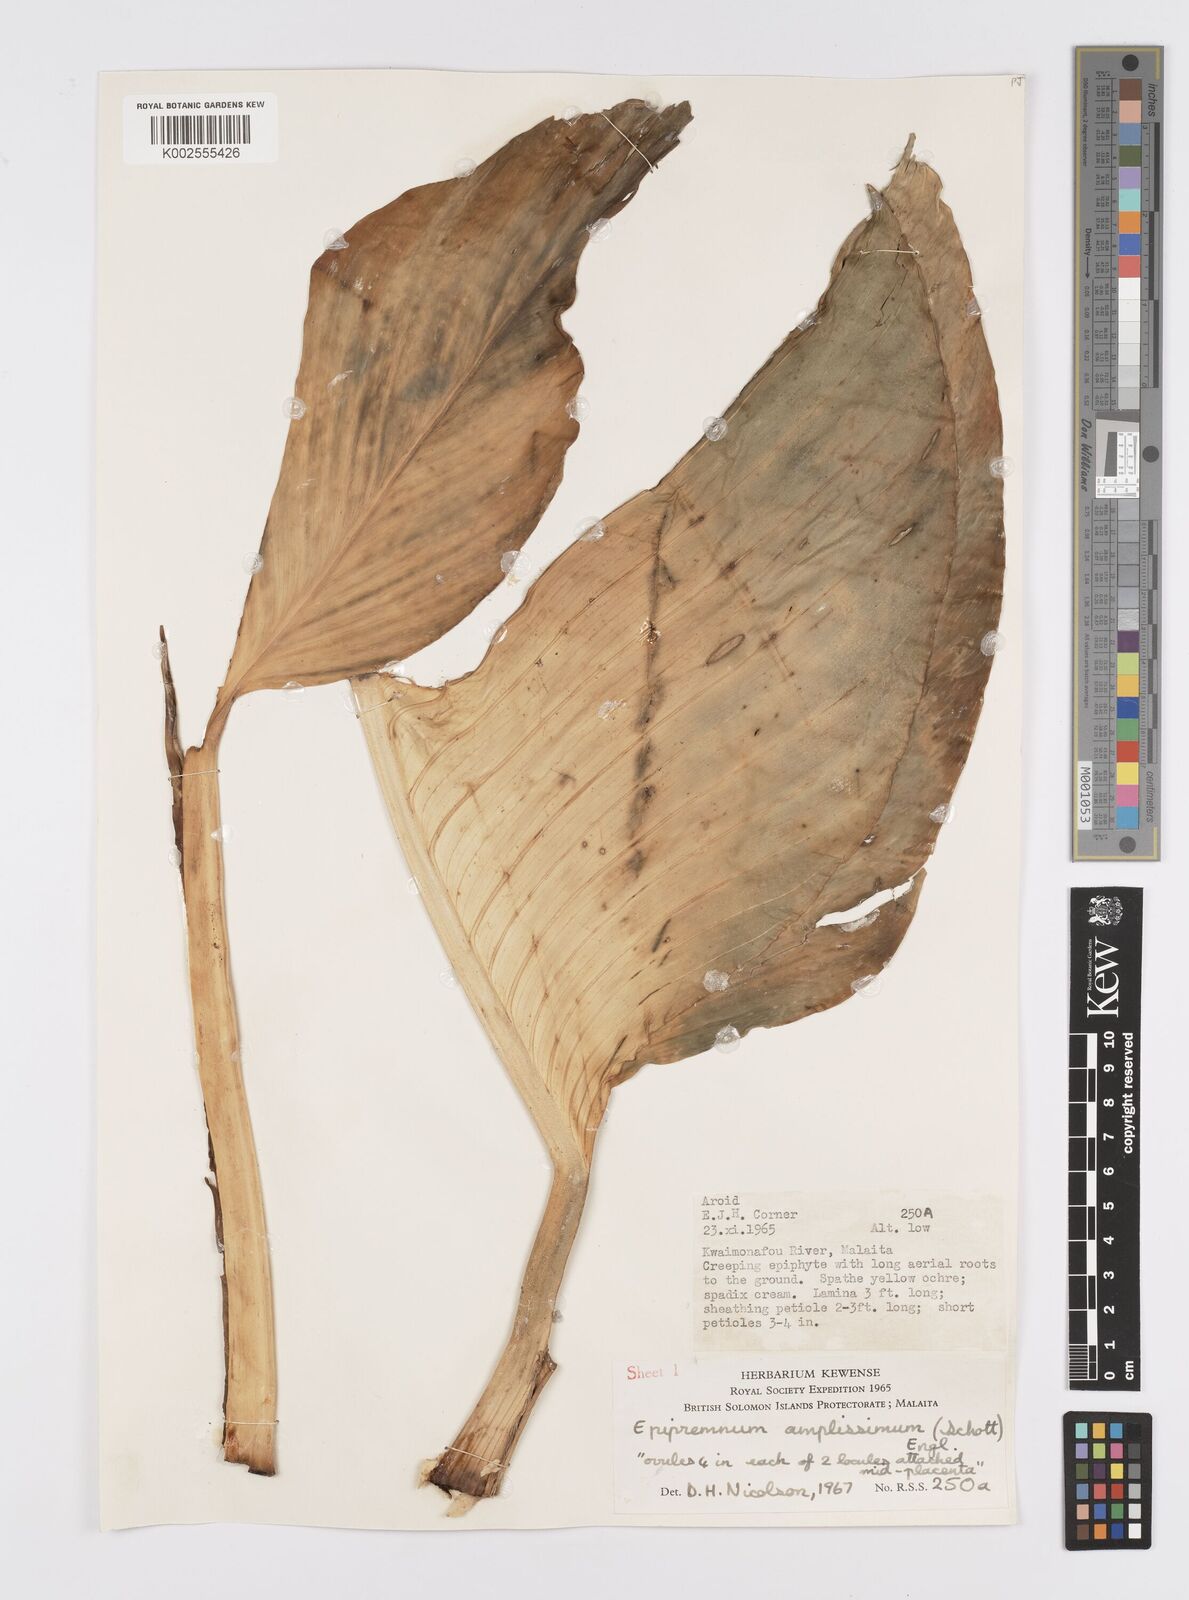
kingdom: Plantae
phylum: Tracheophyta
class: Liliopsida
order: Alismatales
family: Araceae
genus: Epipremnum
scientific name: Epipremnum amplissimum
